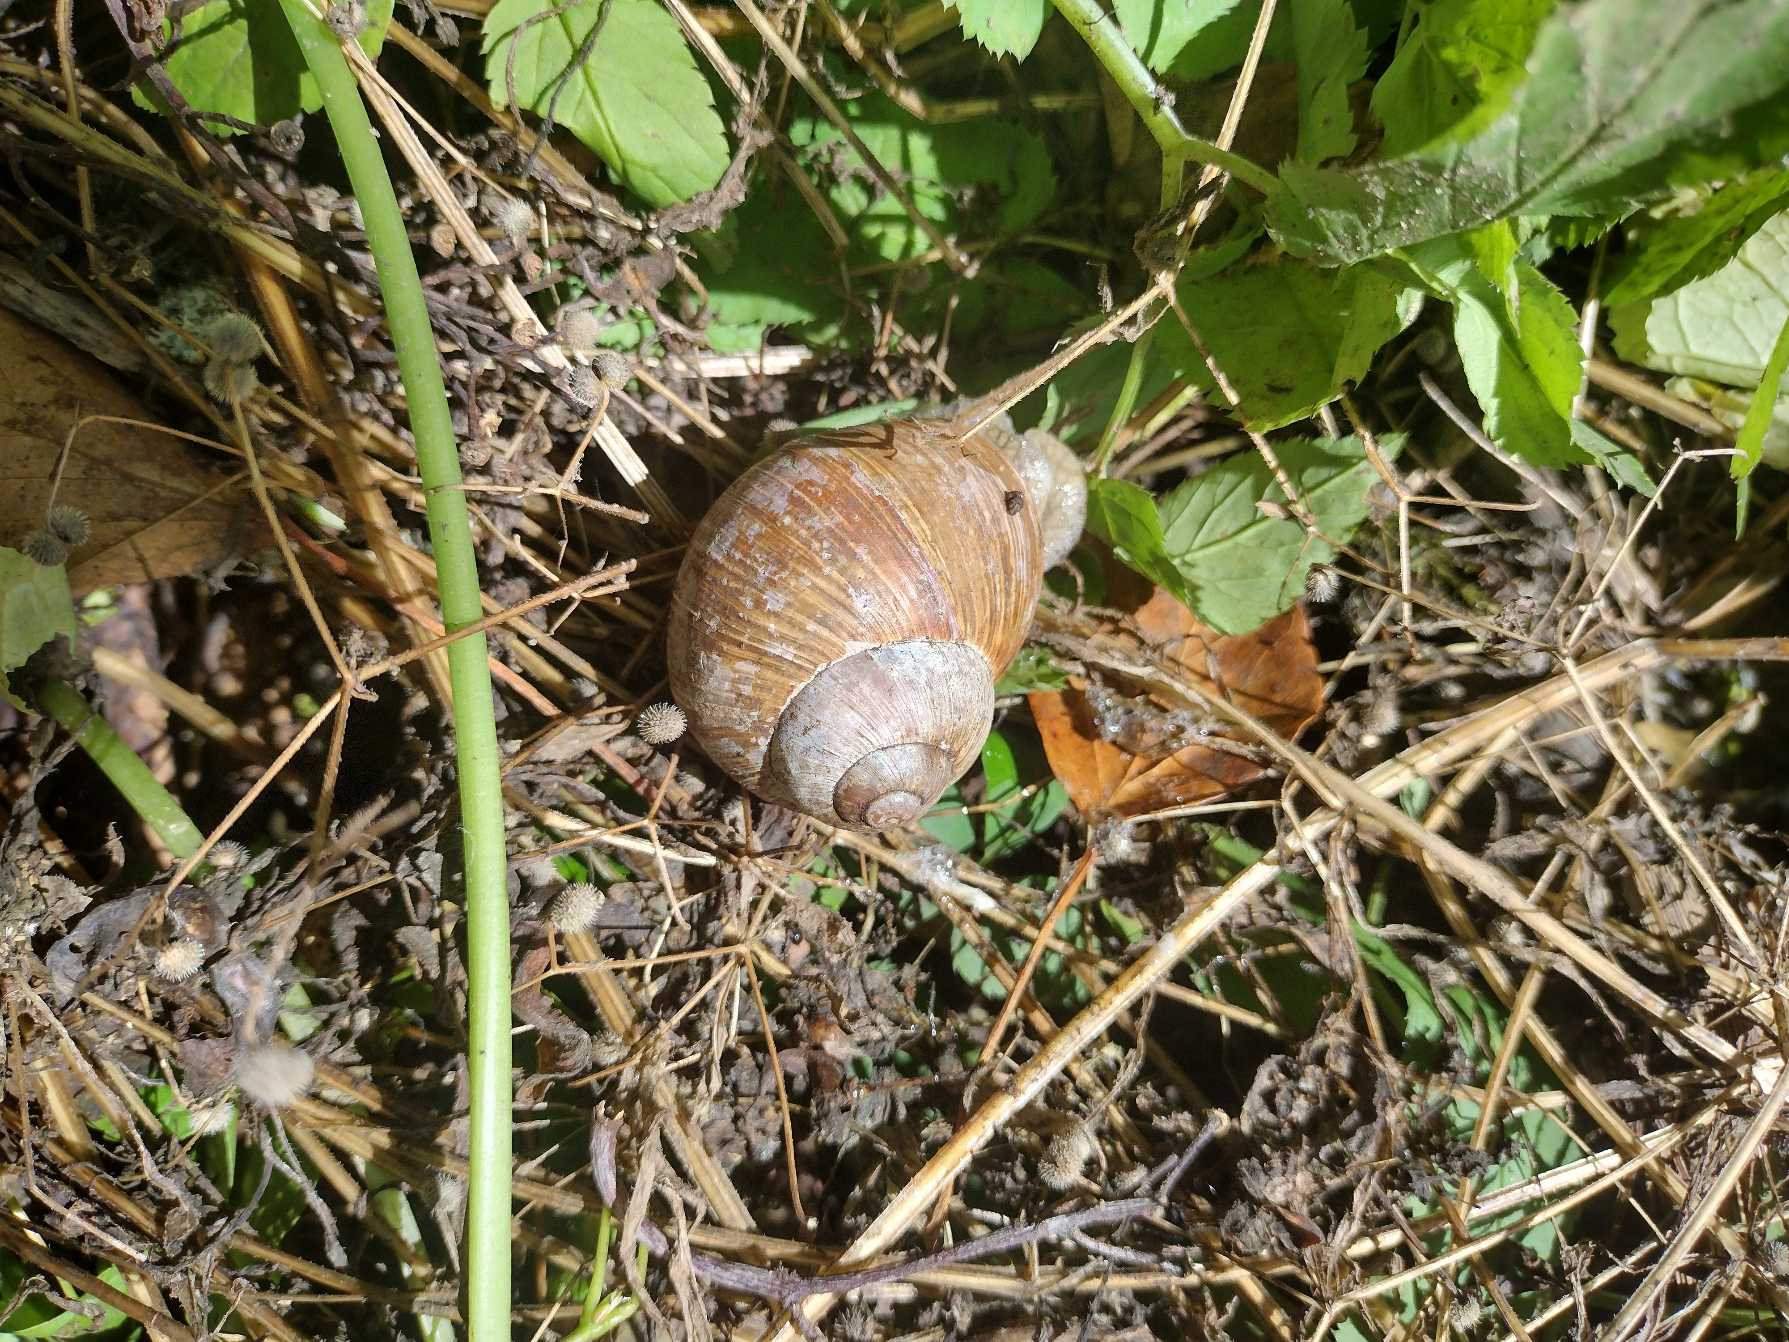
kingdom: Animalia
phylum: Mollusca
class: Gastropoda
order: Stylommatophora
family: Helicidae
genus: Helix
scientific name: Helix pomatia
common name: Vinbjergsnegl
